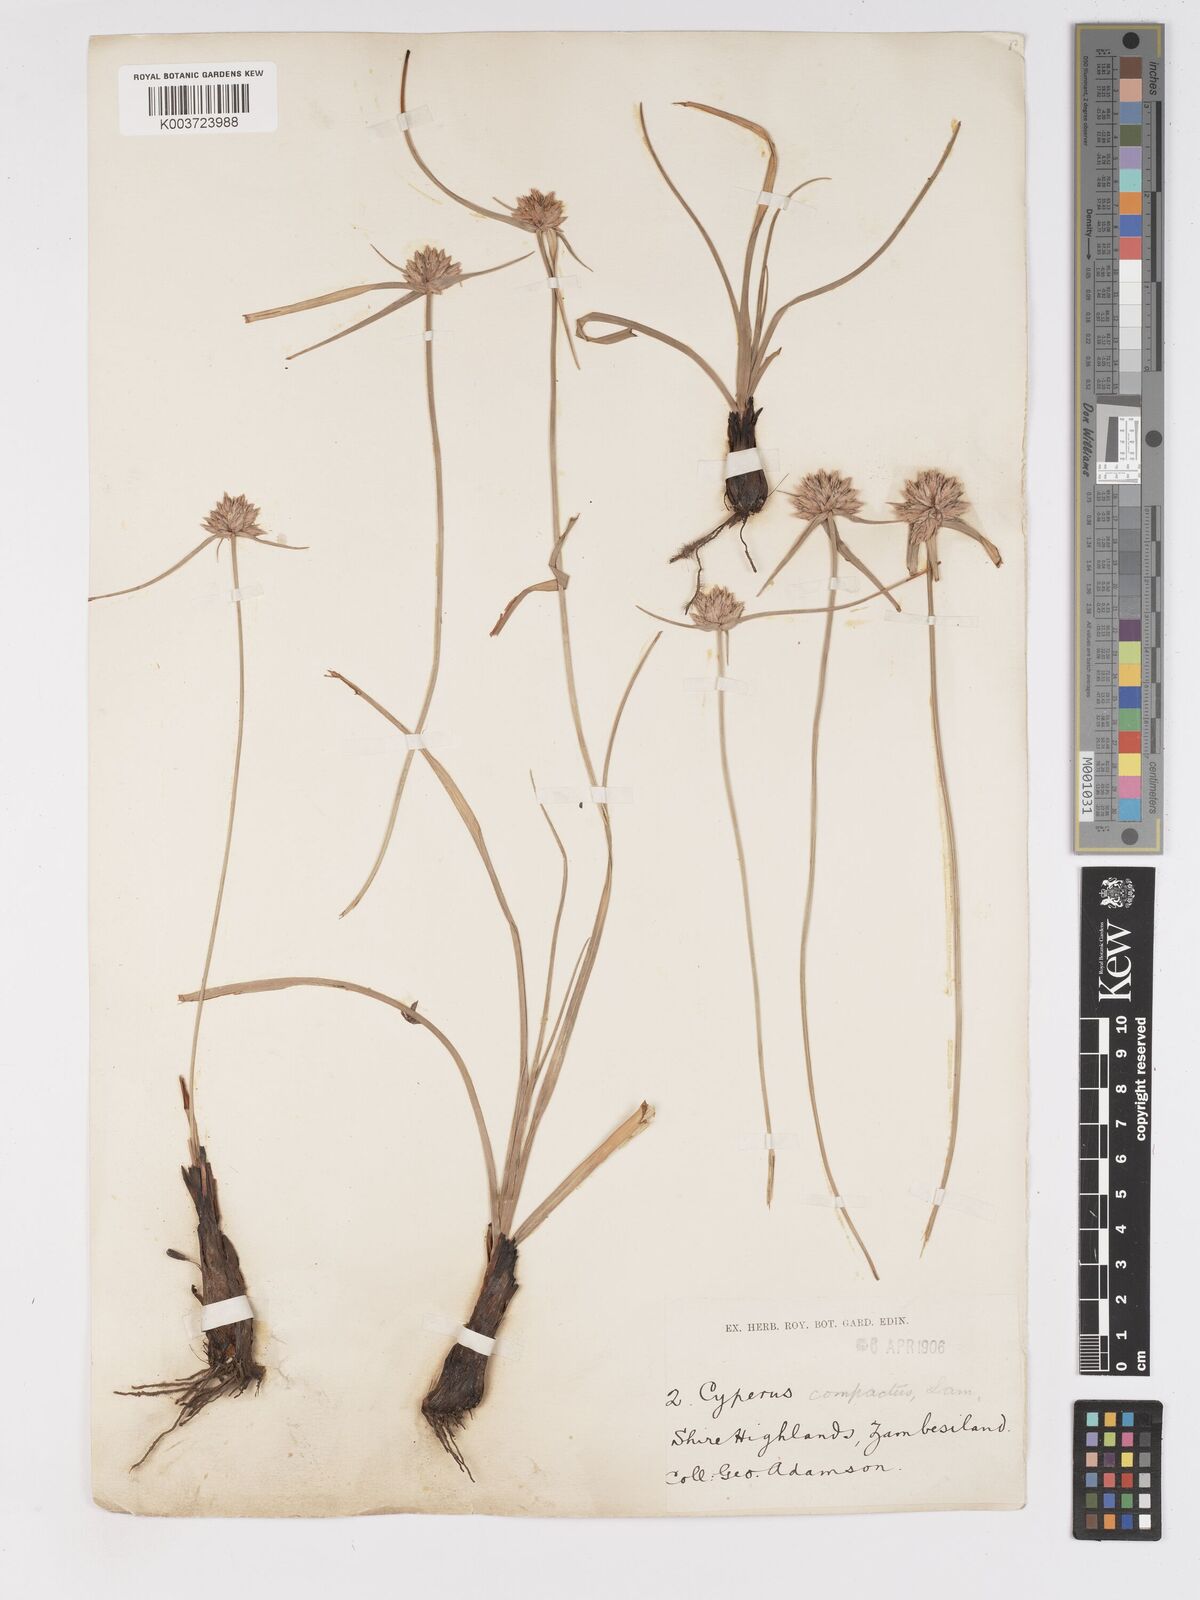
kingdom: Plantae
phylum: Tracheophyta
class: Liliopsida
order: Poales
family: Cyperaceae
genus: Cyperus
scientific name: Cyperus niveus
